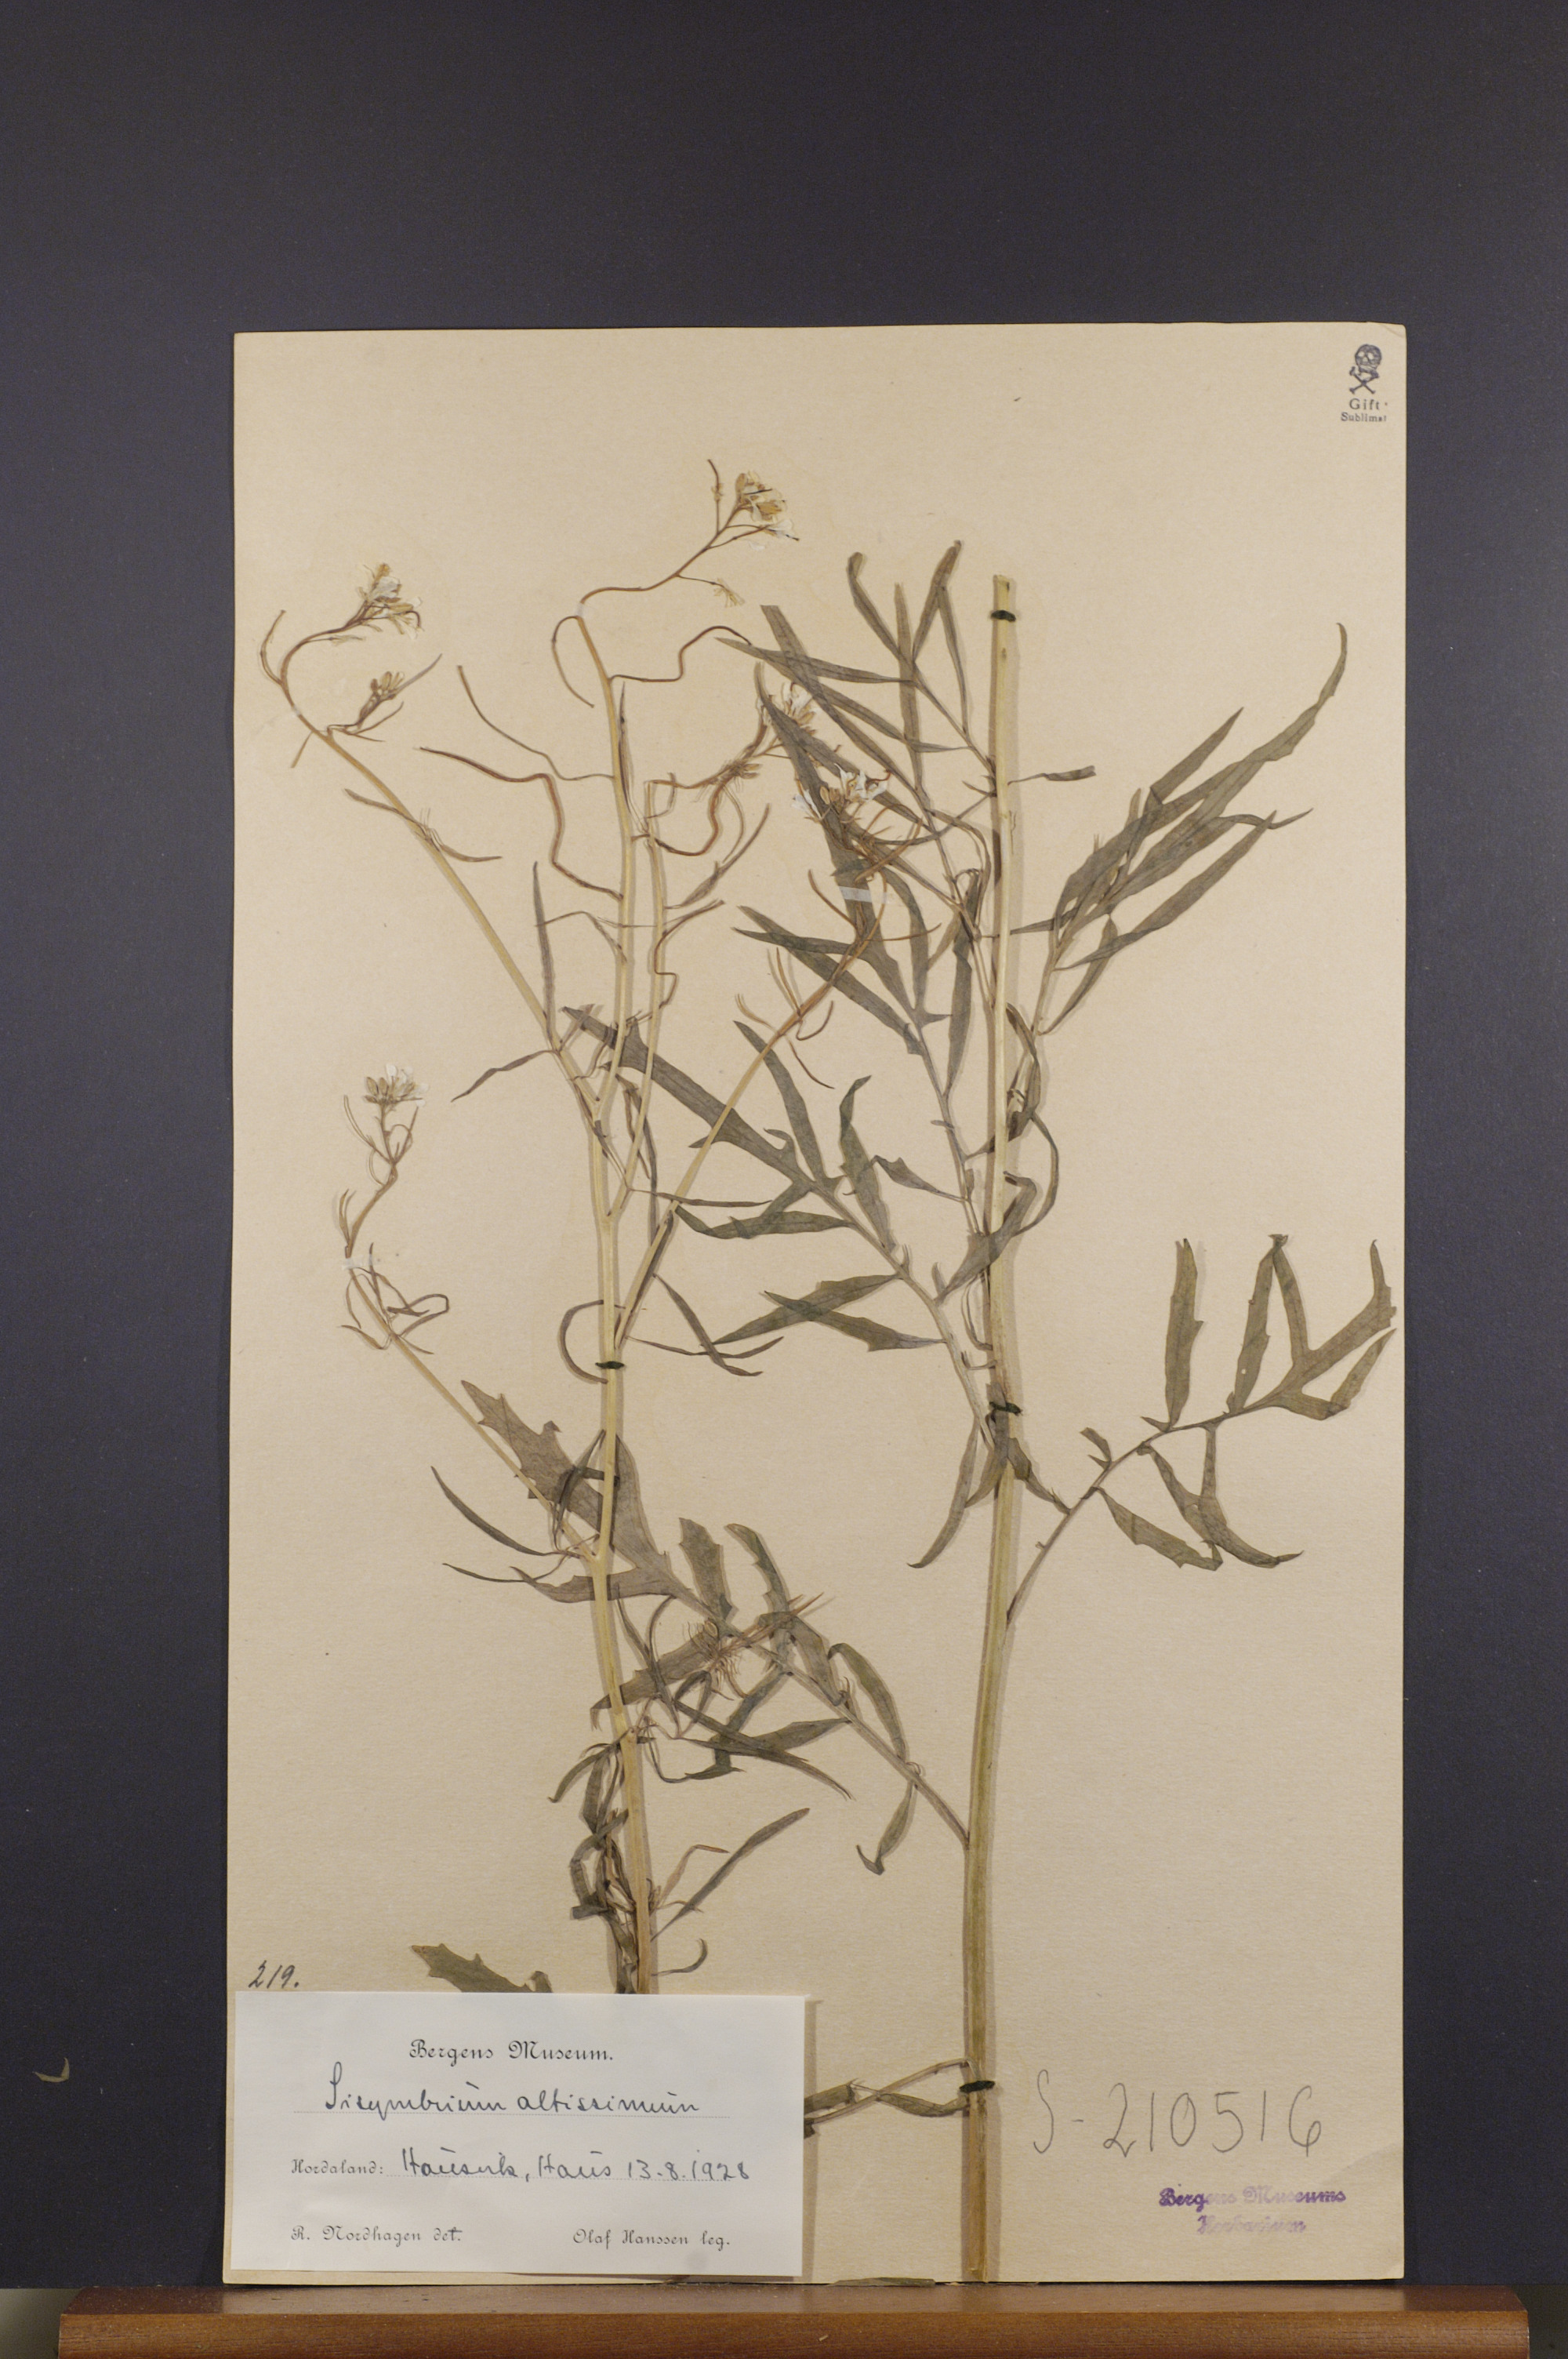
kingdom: Plantae
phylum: Tracheophyta
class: Magnoliopsida
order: Brassicales
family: Brassicaceae
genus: Sisymbrium
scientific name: Sisymbrium altissimum
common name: Tall rocket
